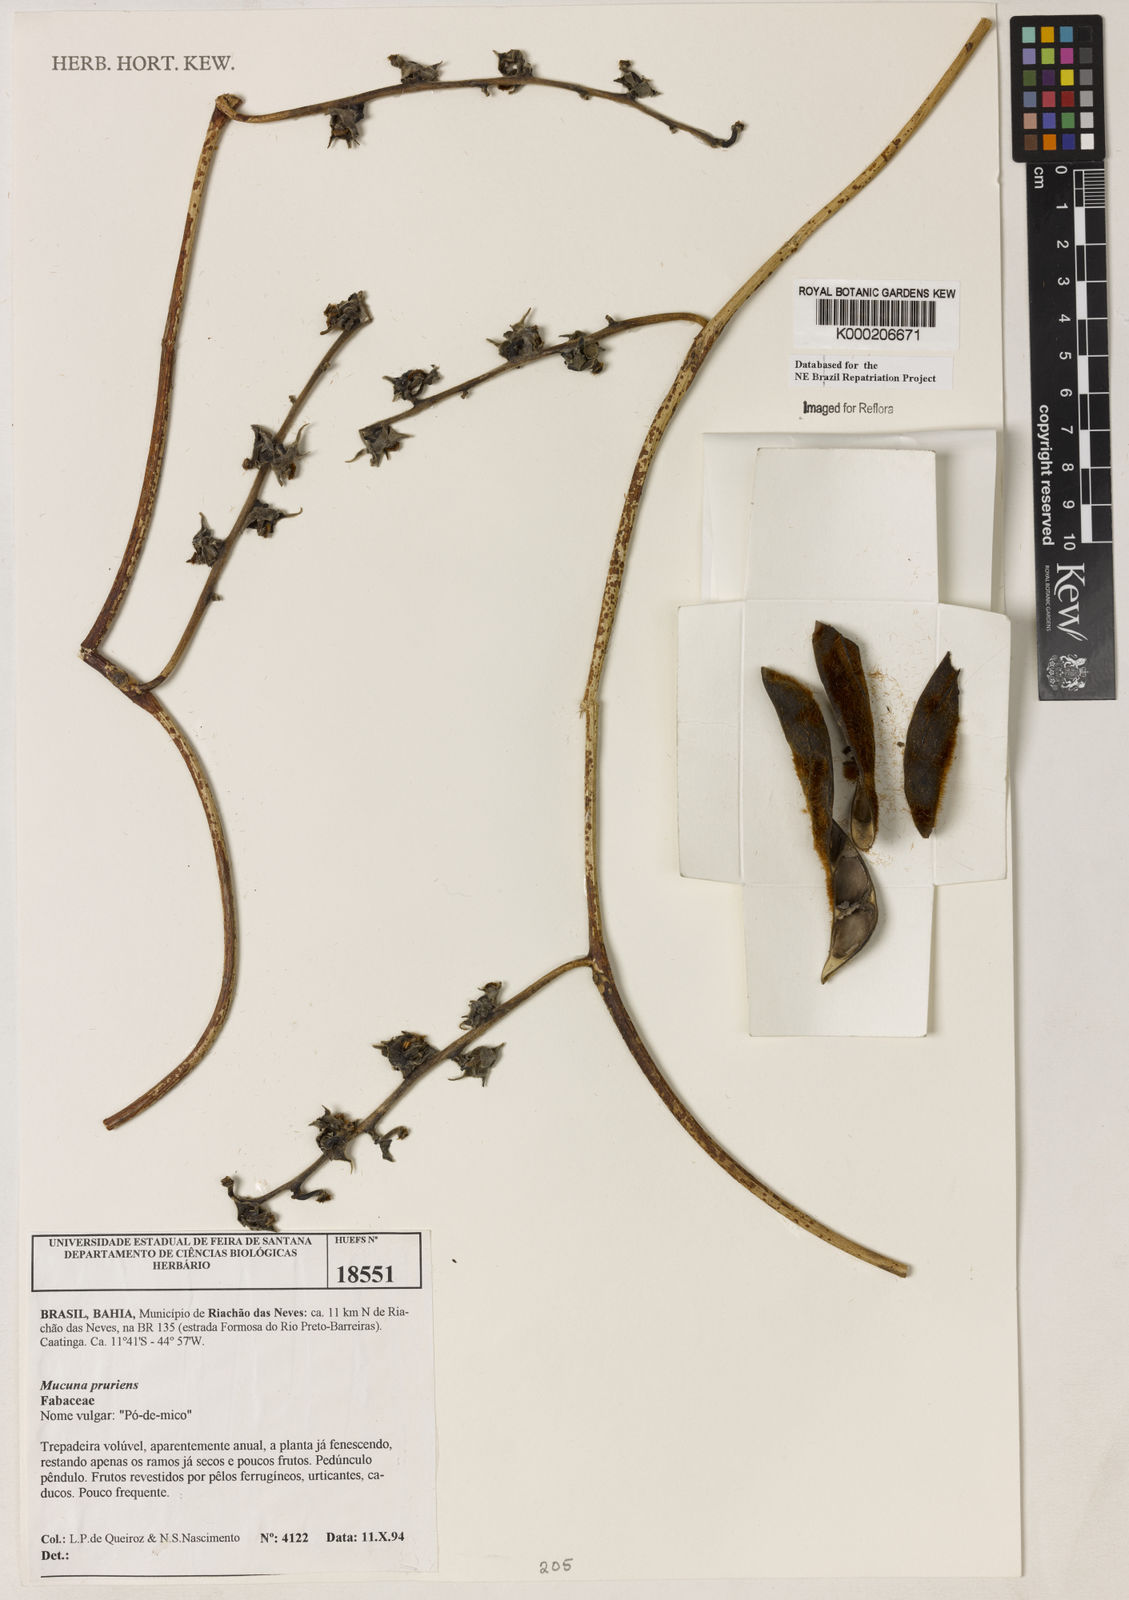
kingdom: Plantae
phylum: Tracheophyta
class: Magnoliopsida
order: Fabales
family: Fabaceae
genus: Mucuna
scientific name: Mucuna pruriens
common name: Cow-itch
